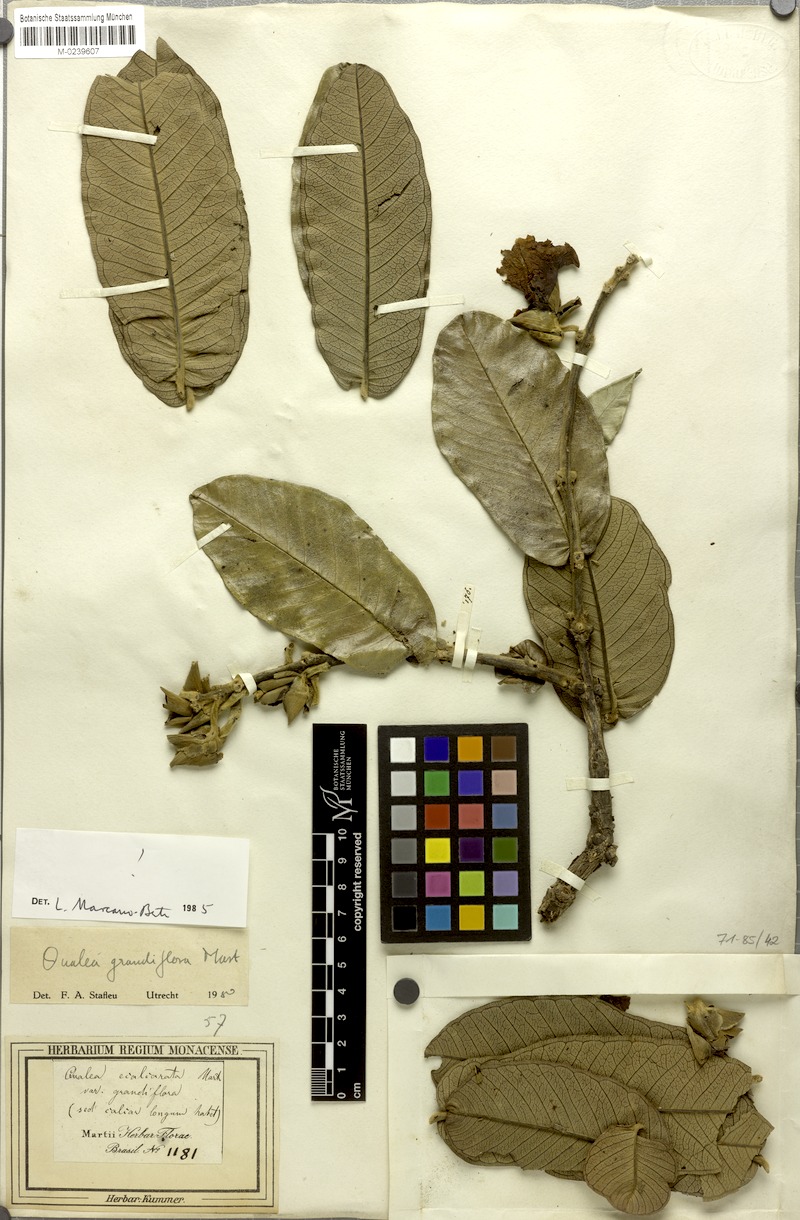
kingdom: Plantae
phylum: Tracheophyta
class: Magnoliopsida
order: Myrtales
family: Vochysiaceae
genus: Qualea
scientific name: Qualea grandiflora
